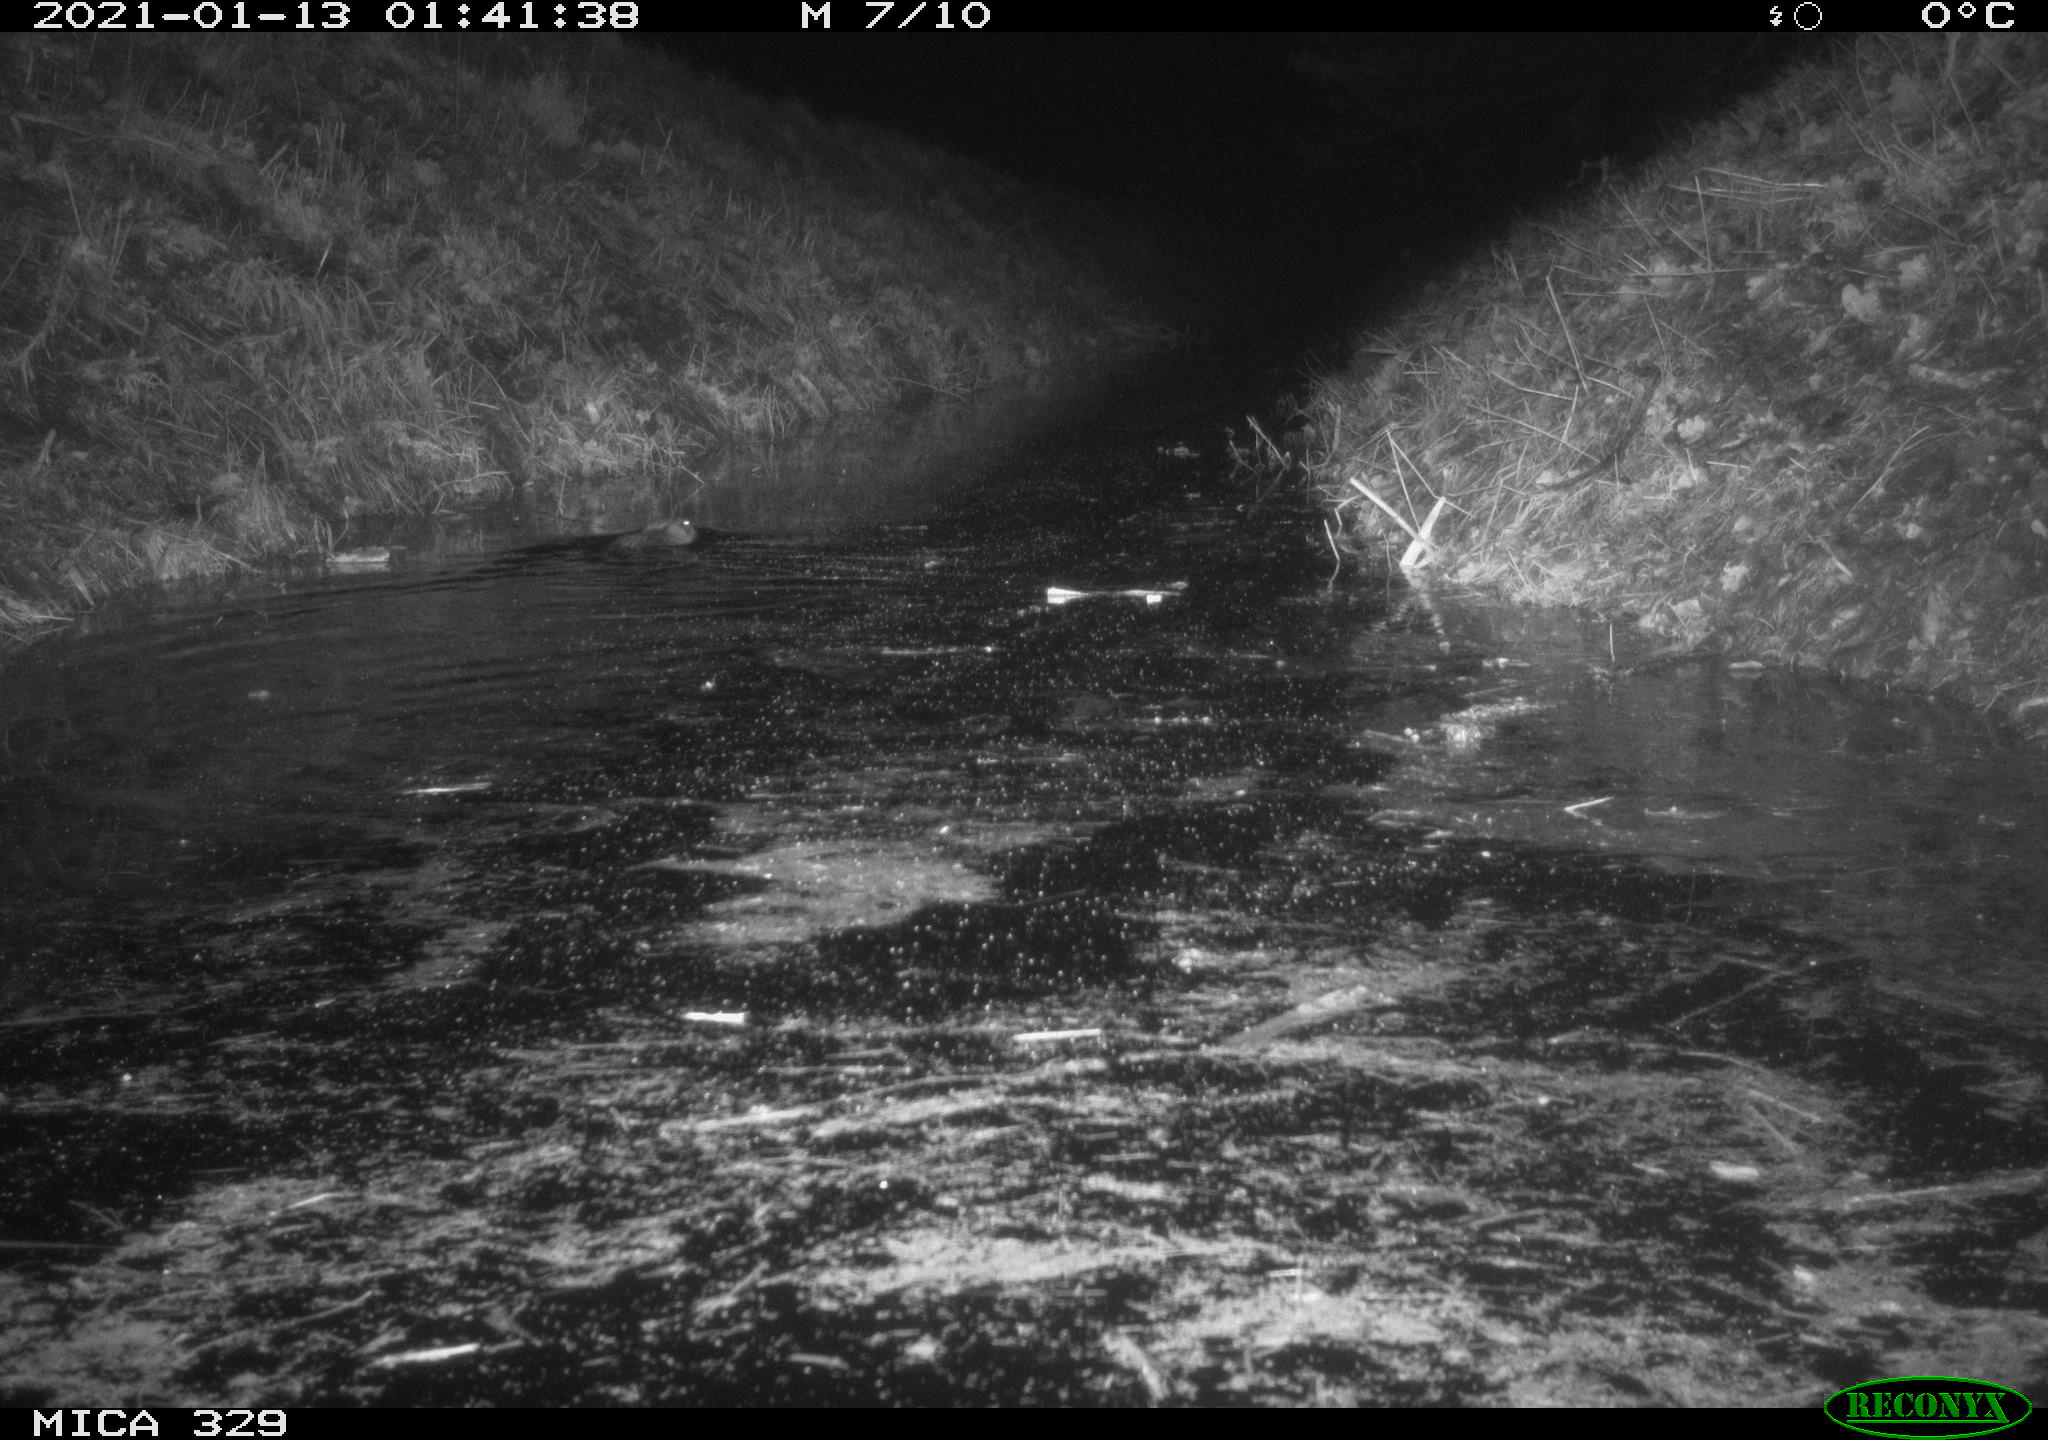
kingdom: Animalia
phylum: Chordata
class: Mammalia
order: Rodentia
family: Cricetidae
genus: Ondatra
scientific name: Ondatra zibethicus
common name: Muskrat
